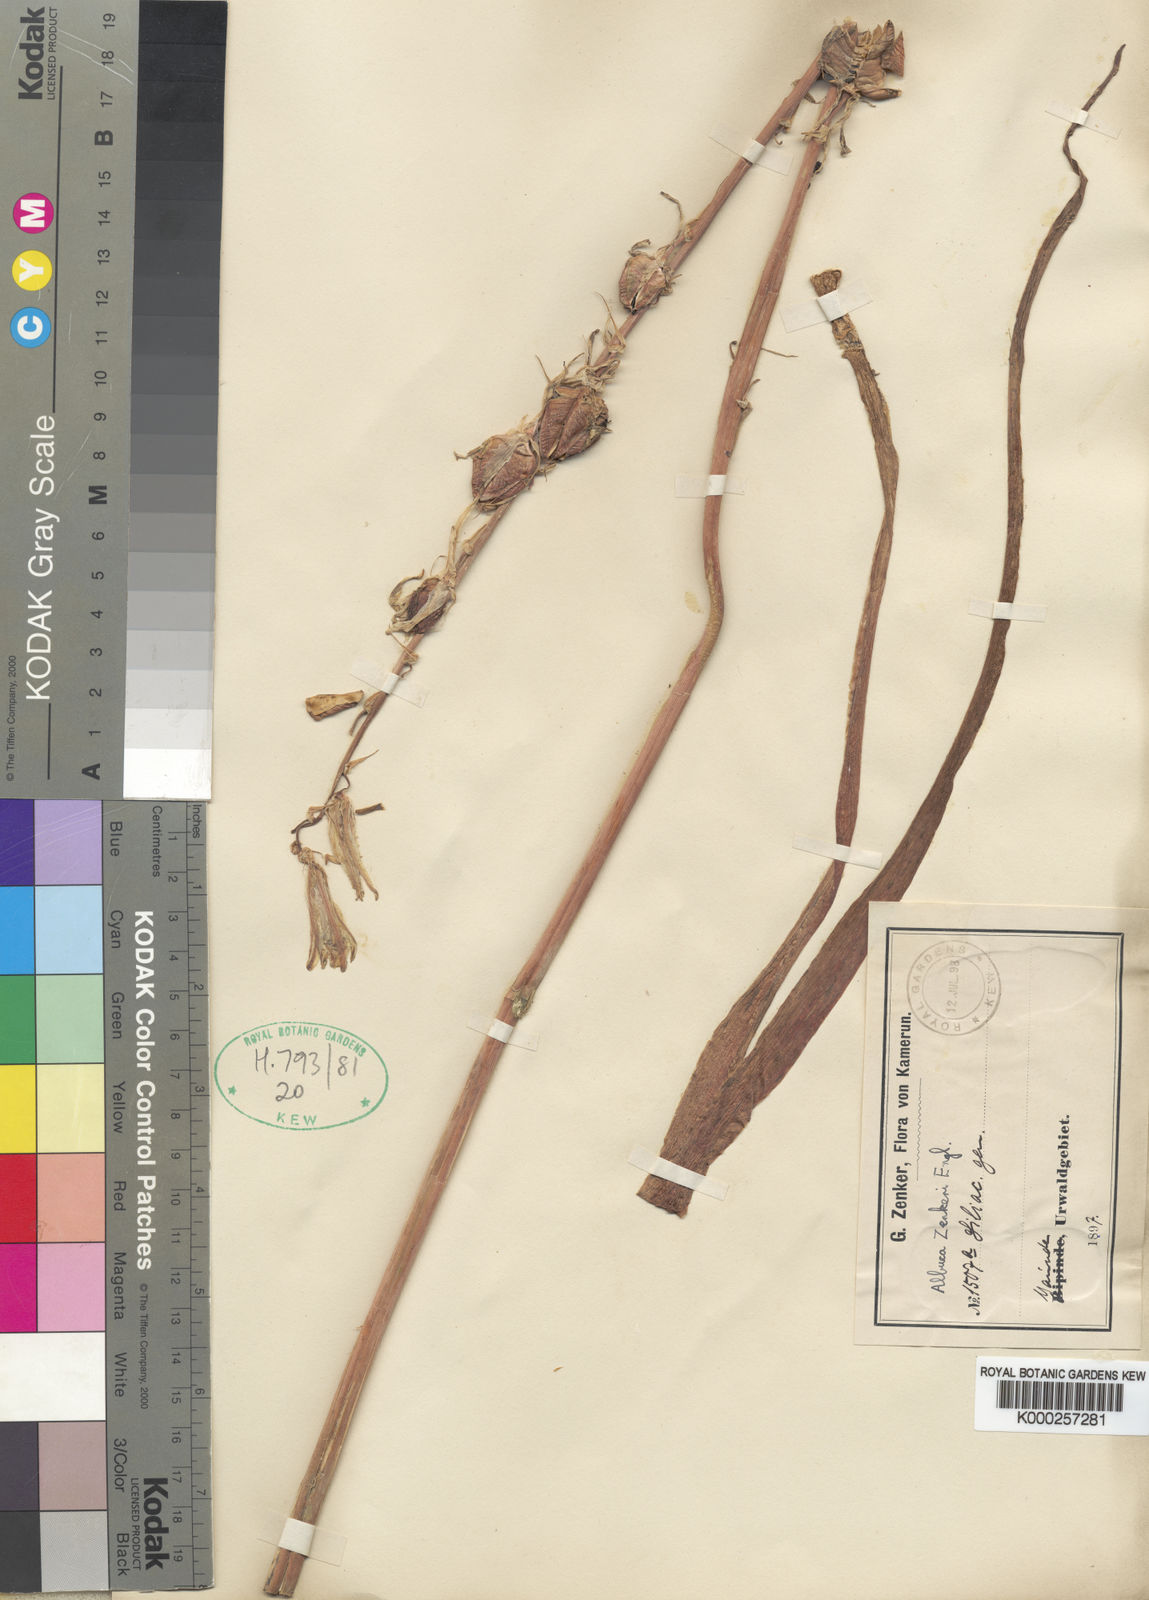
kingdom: Plantae
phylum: Tracheophyta
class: Liliopsida
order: Asparagales
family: Asparagaceae
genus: Albuca
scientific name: Albuca zenkeri
